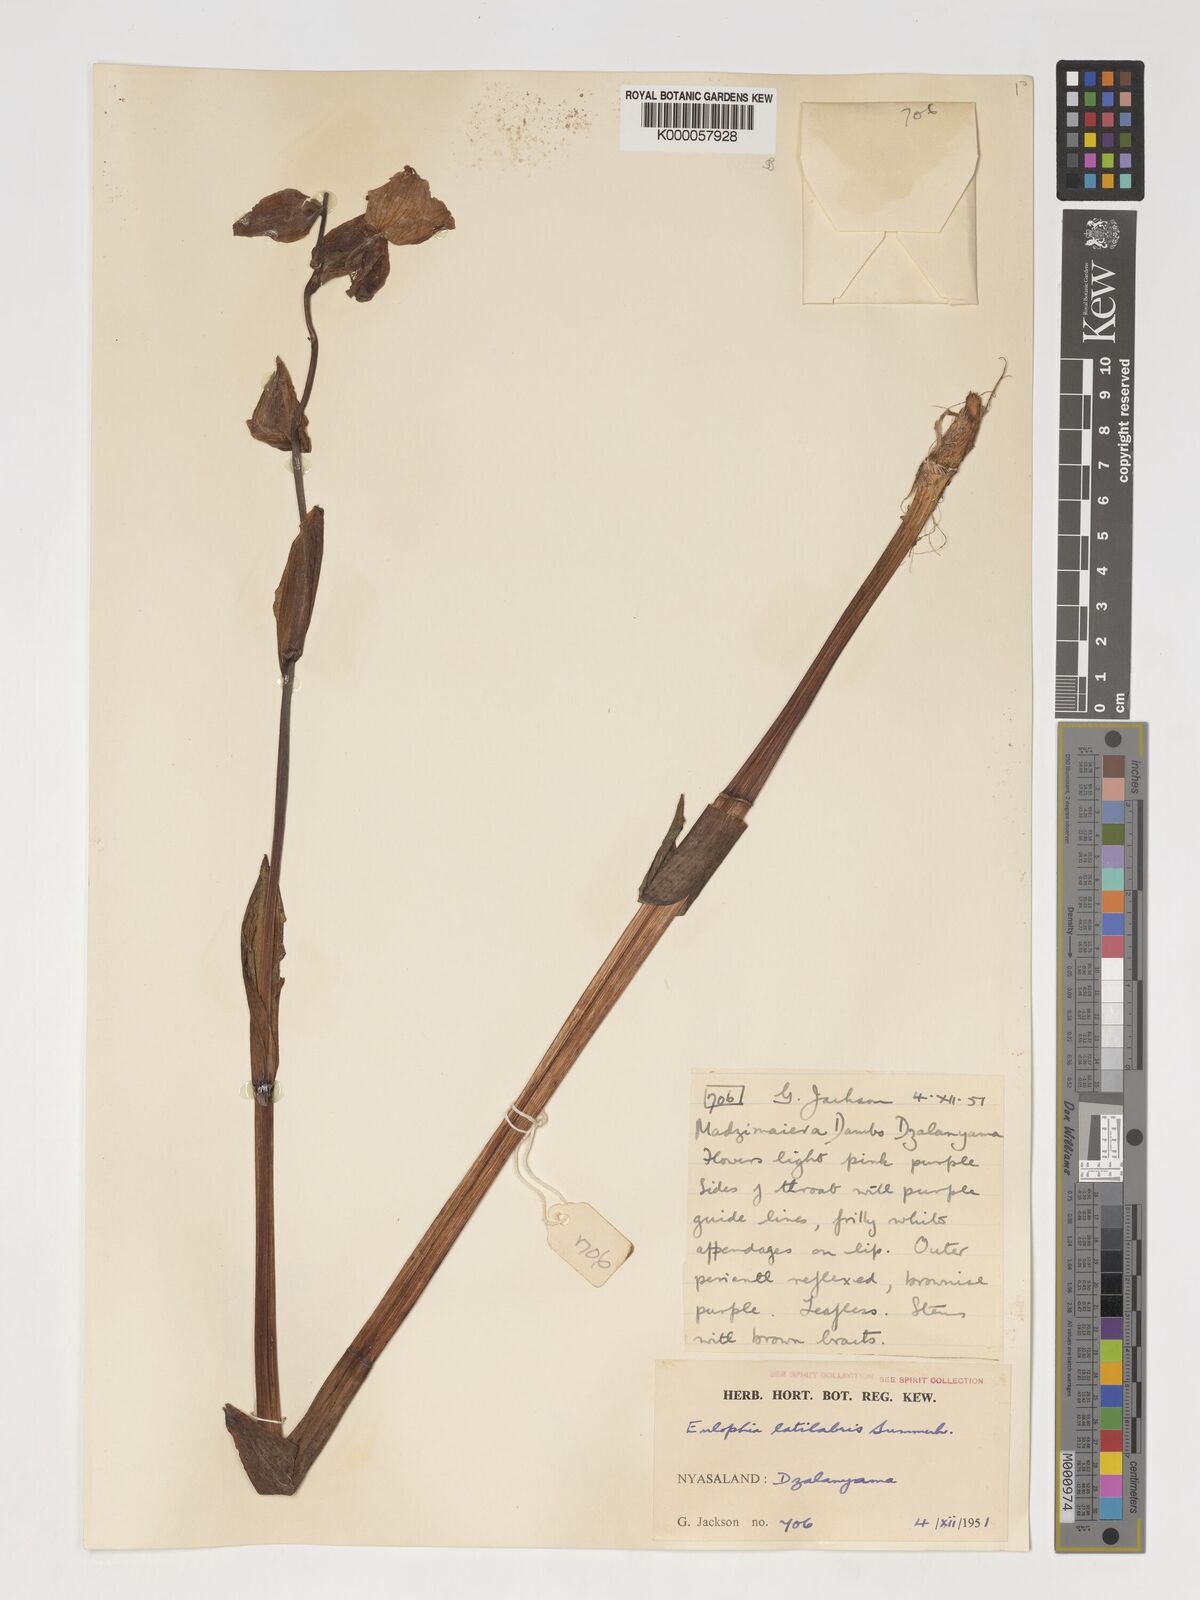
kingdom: Plantae
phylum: Tracheophyta
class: Liliopsida
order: Asparagales
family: Orchidaceae
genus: Eulophia
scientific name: Eulophia latilabris
